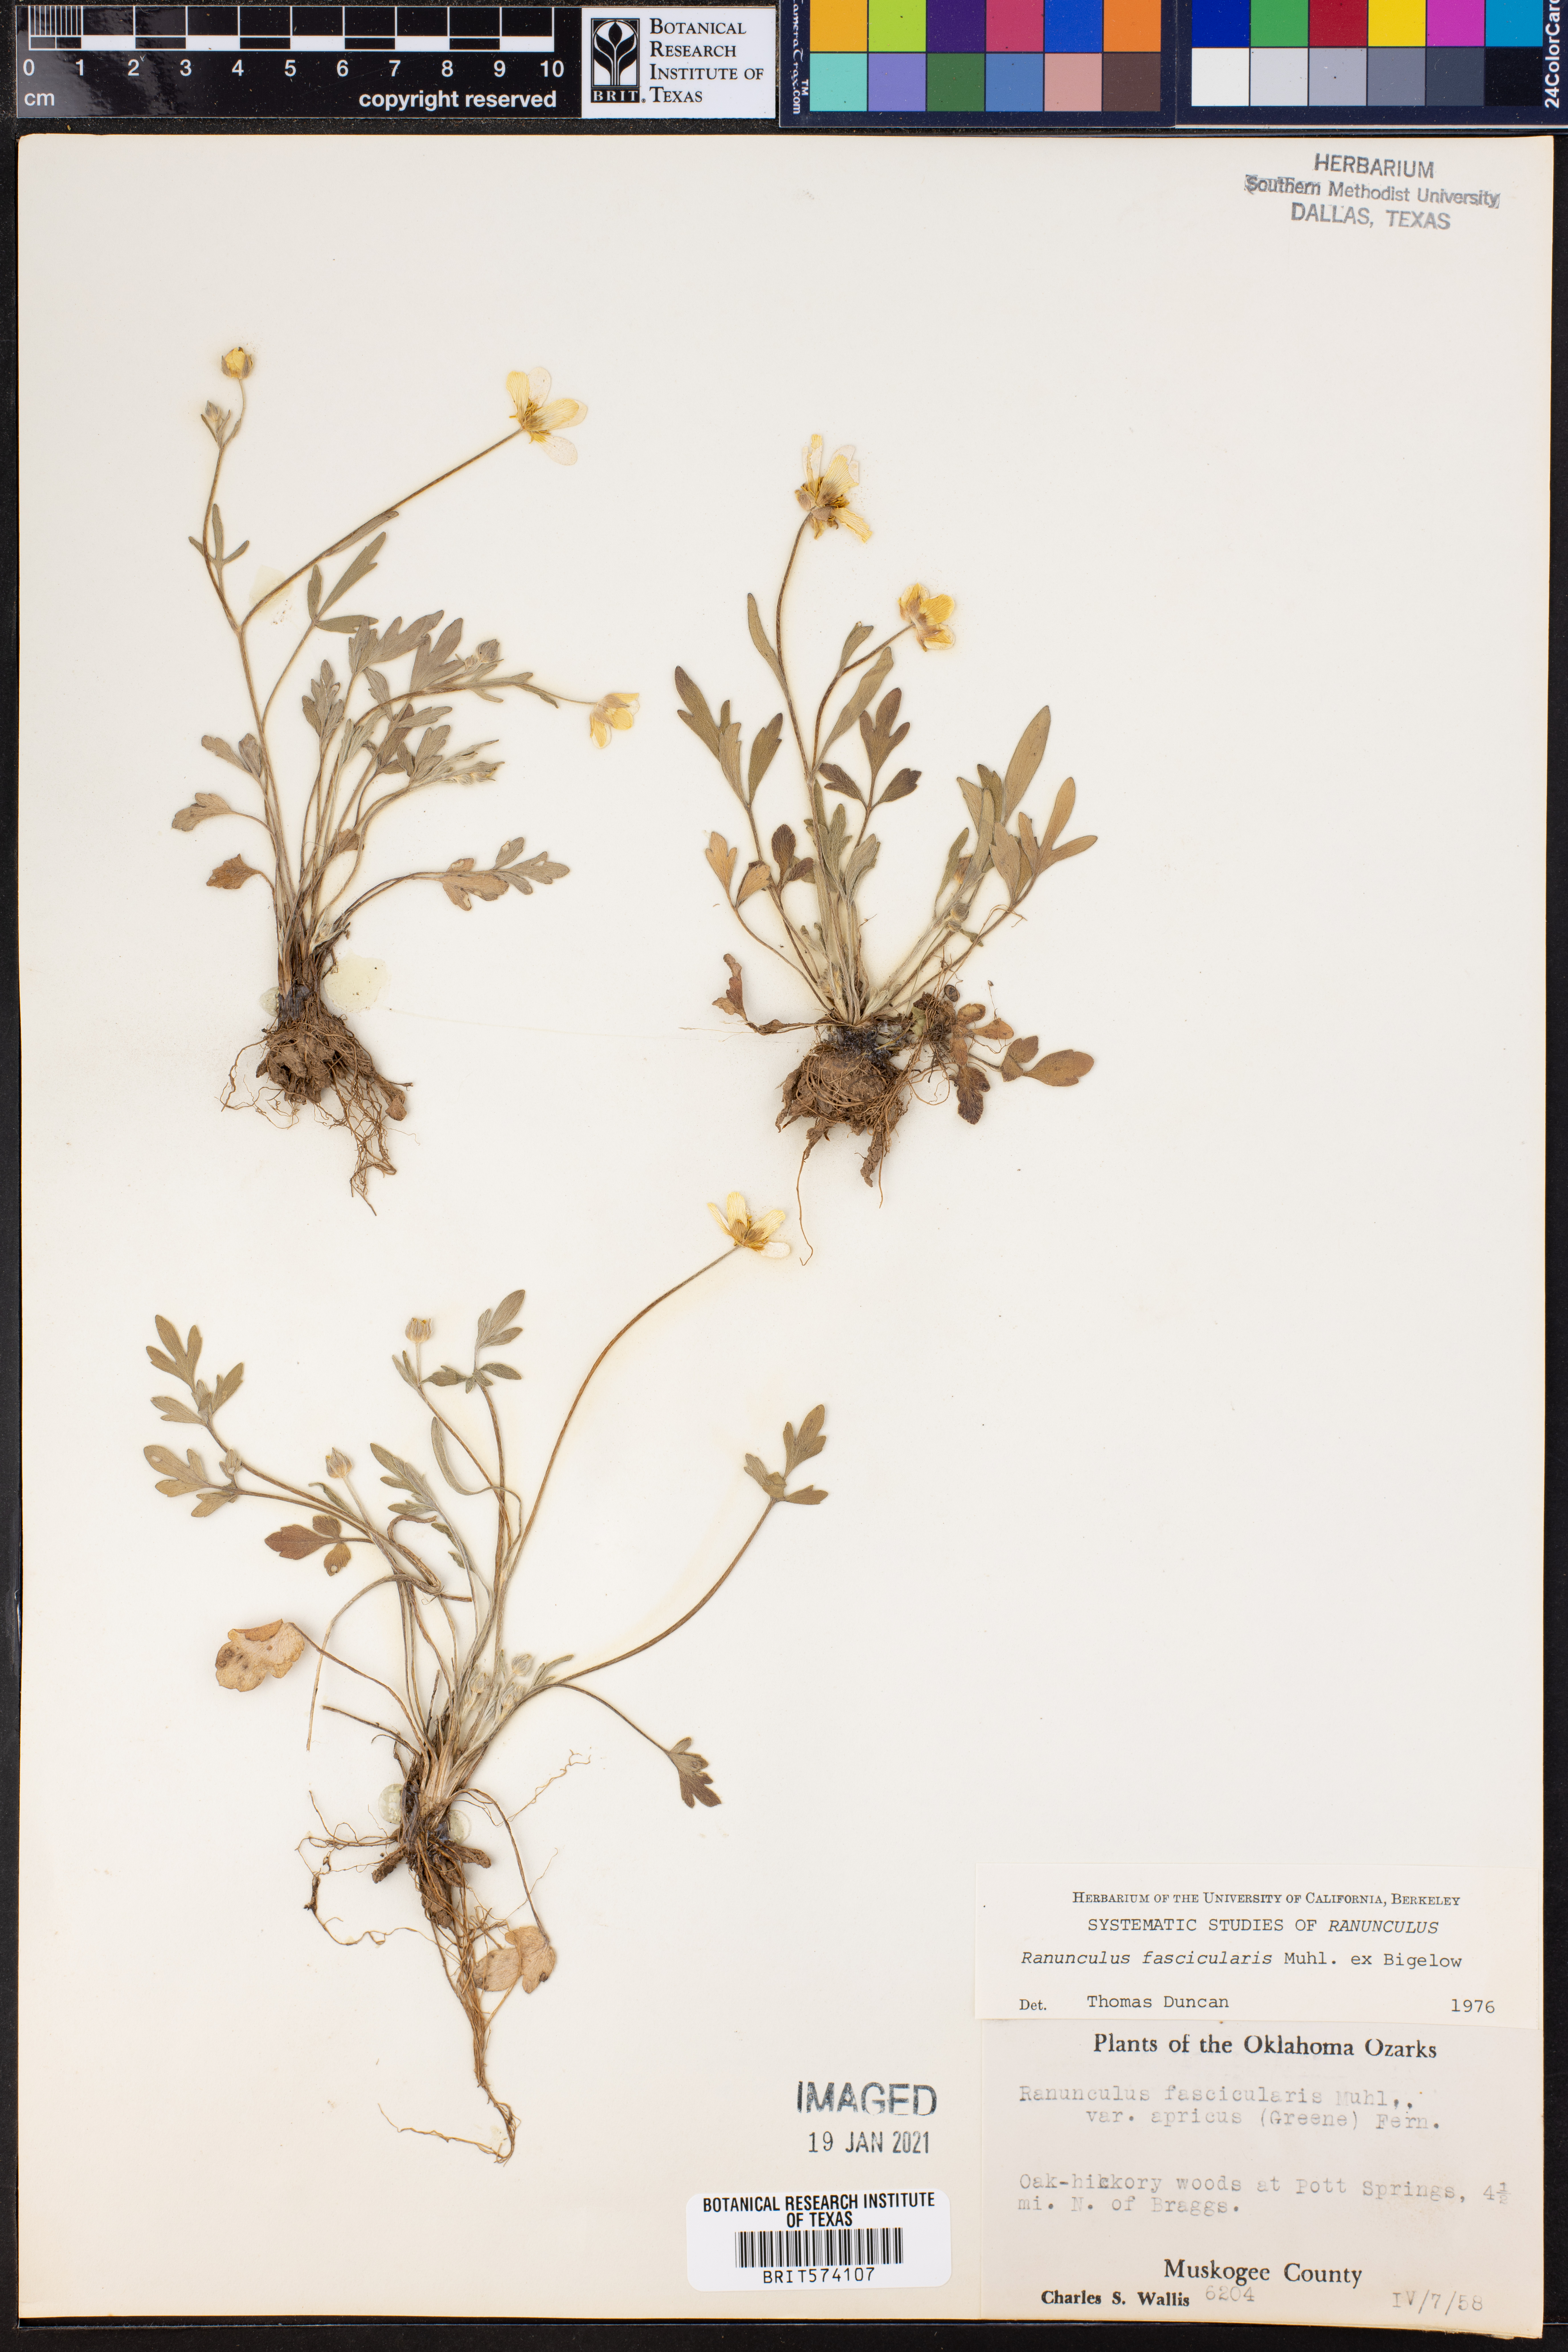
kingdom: Plantae
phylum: Tracheophyta
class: Magnoliopsida
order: Ranunculales
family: Ranunculaceae
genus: Ranunculus
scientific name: Ranunculus fascicularis
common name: Early buttercup
